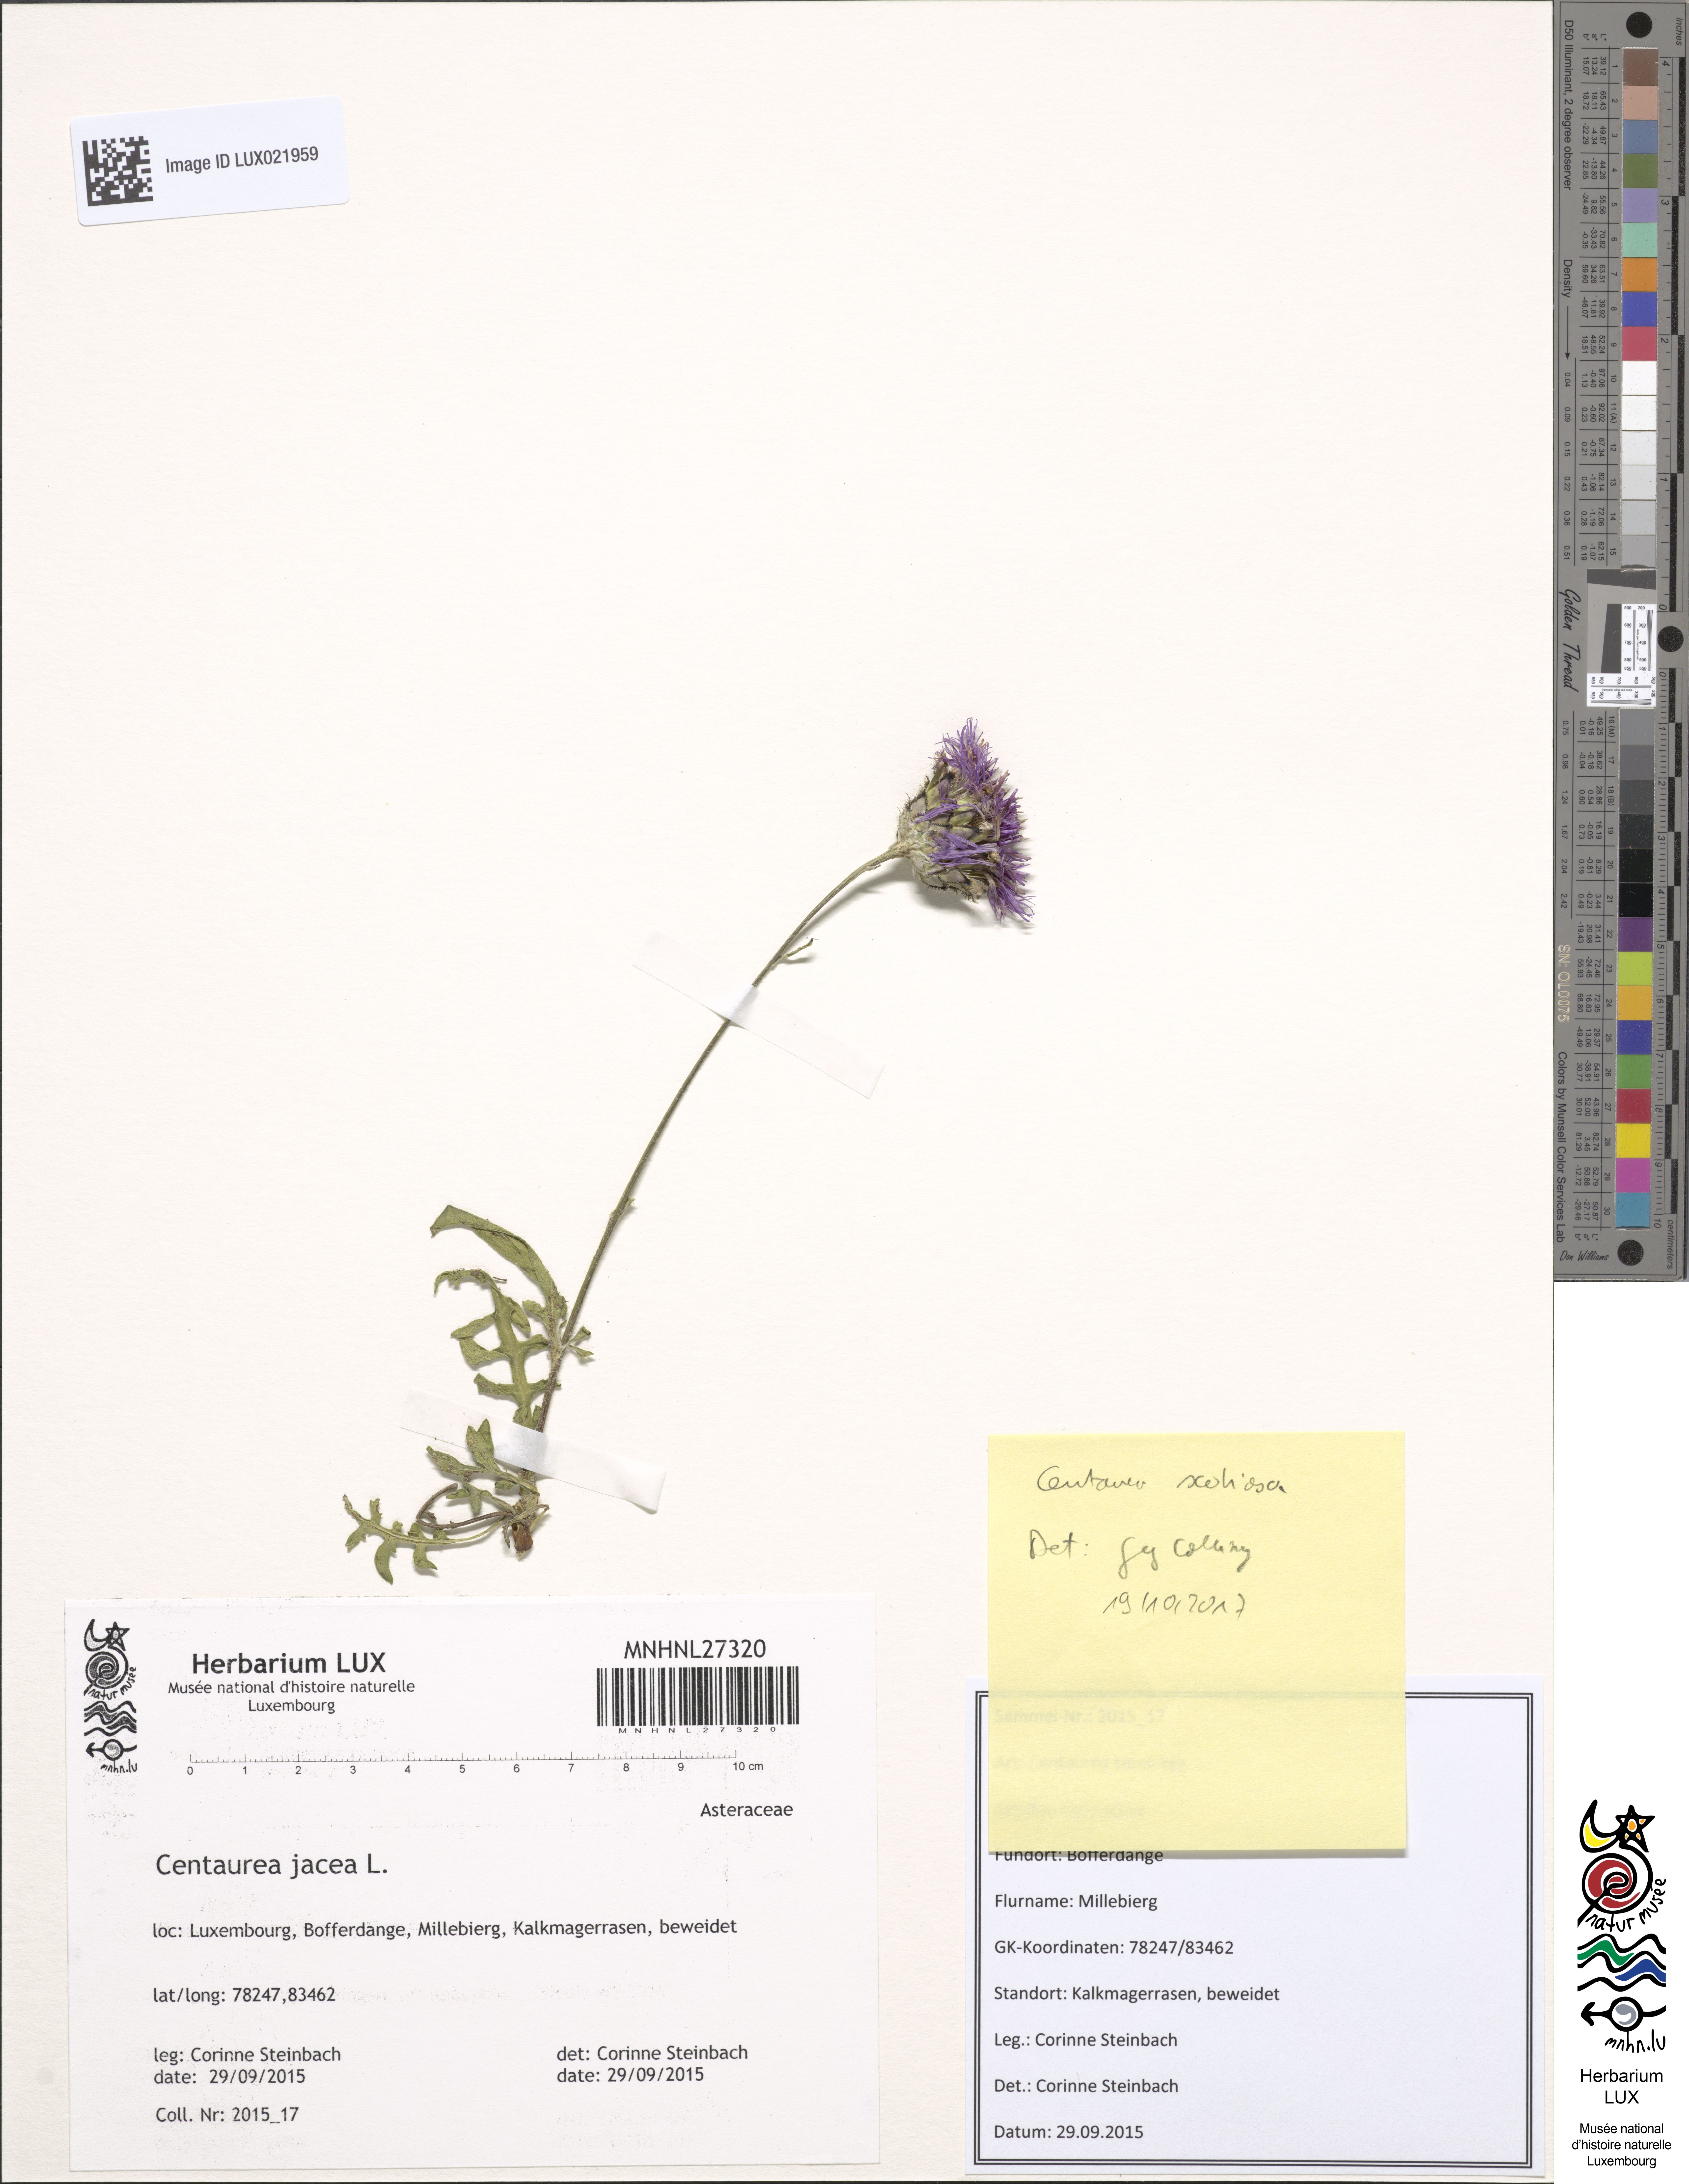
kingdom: Plantae
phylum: Tracheophyta
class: Magnoliopsida
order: Asterales
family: Asteraceae
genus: Centaurea
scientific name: Centaurea scabiosa
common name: Greater knapweed
